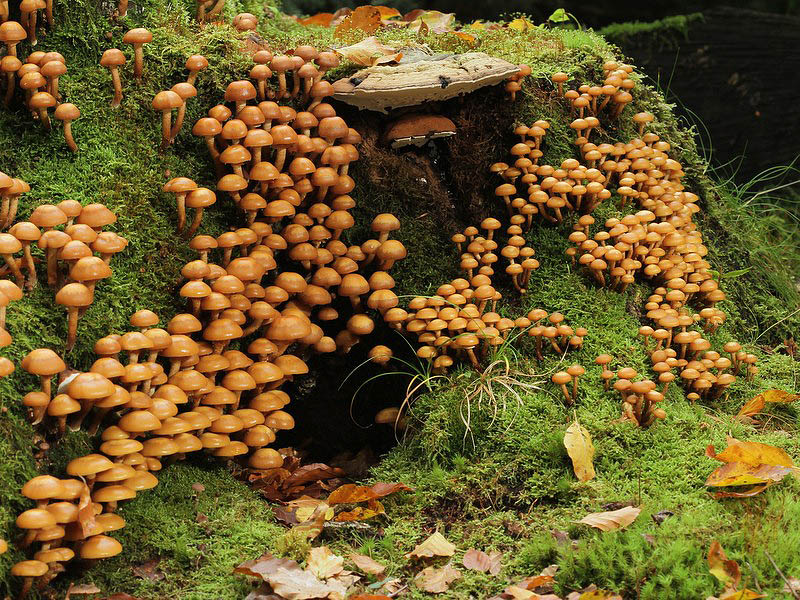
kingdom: Fungi
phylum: Basidiomycota
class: Agaricomycetes
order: Agaricales
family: Strophariaceae
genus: Kuehneromyces
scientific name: Kuehneromyces mutabilis
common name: foranderlig skælhat
